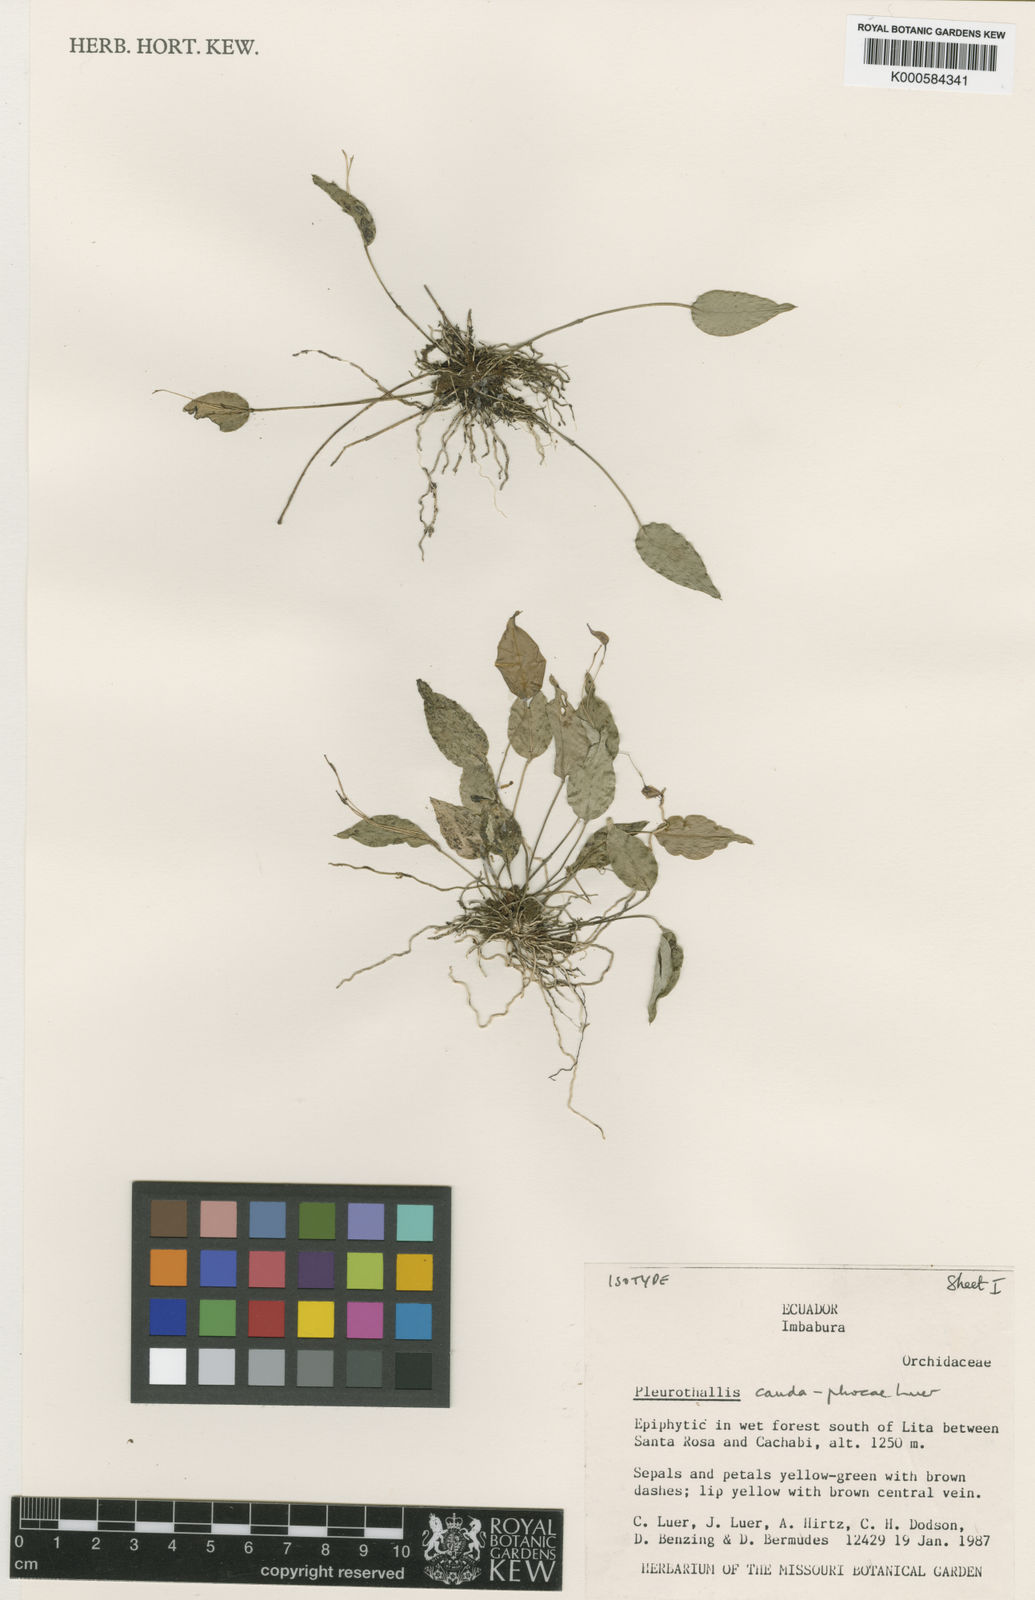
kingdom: Plantae
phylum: Tracheophyta
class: Liliopsida
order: Asparagales
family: Orchidaceae
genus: Lepanthes
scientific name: Lepanthes
